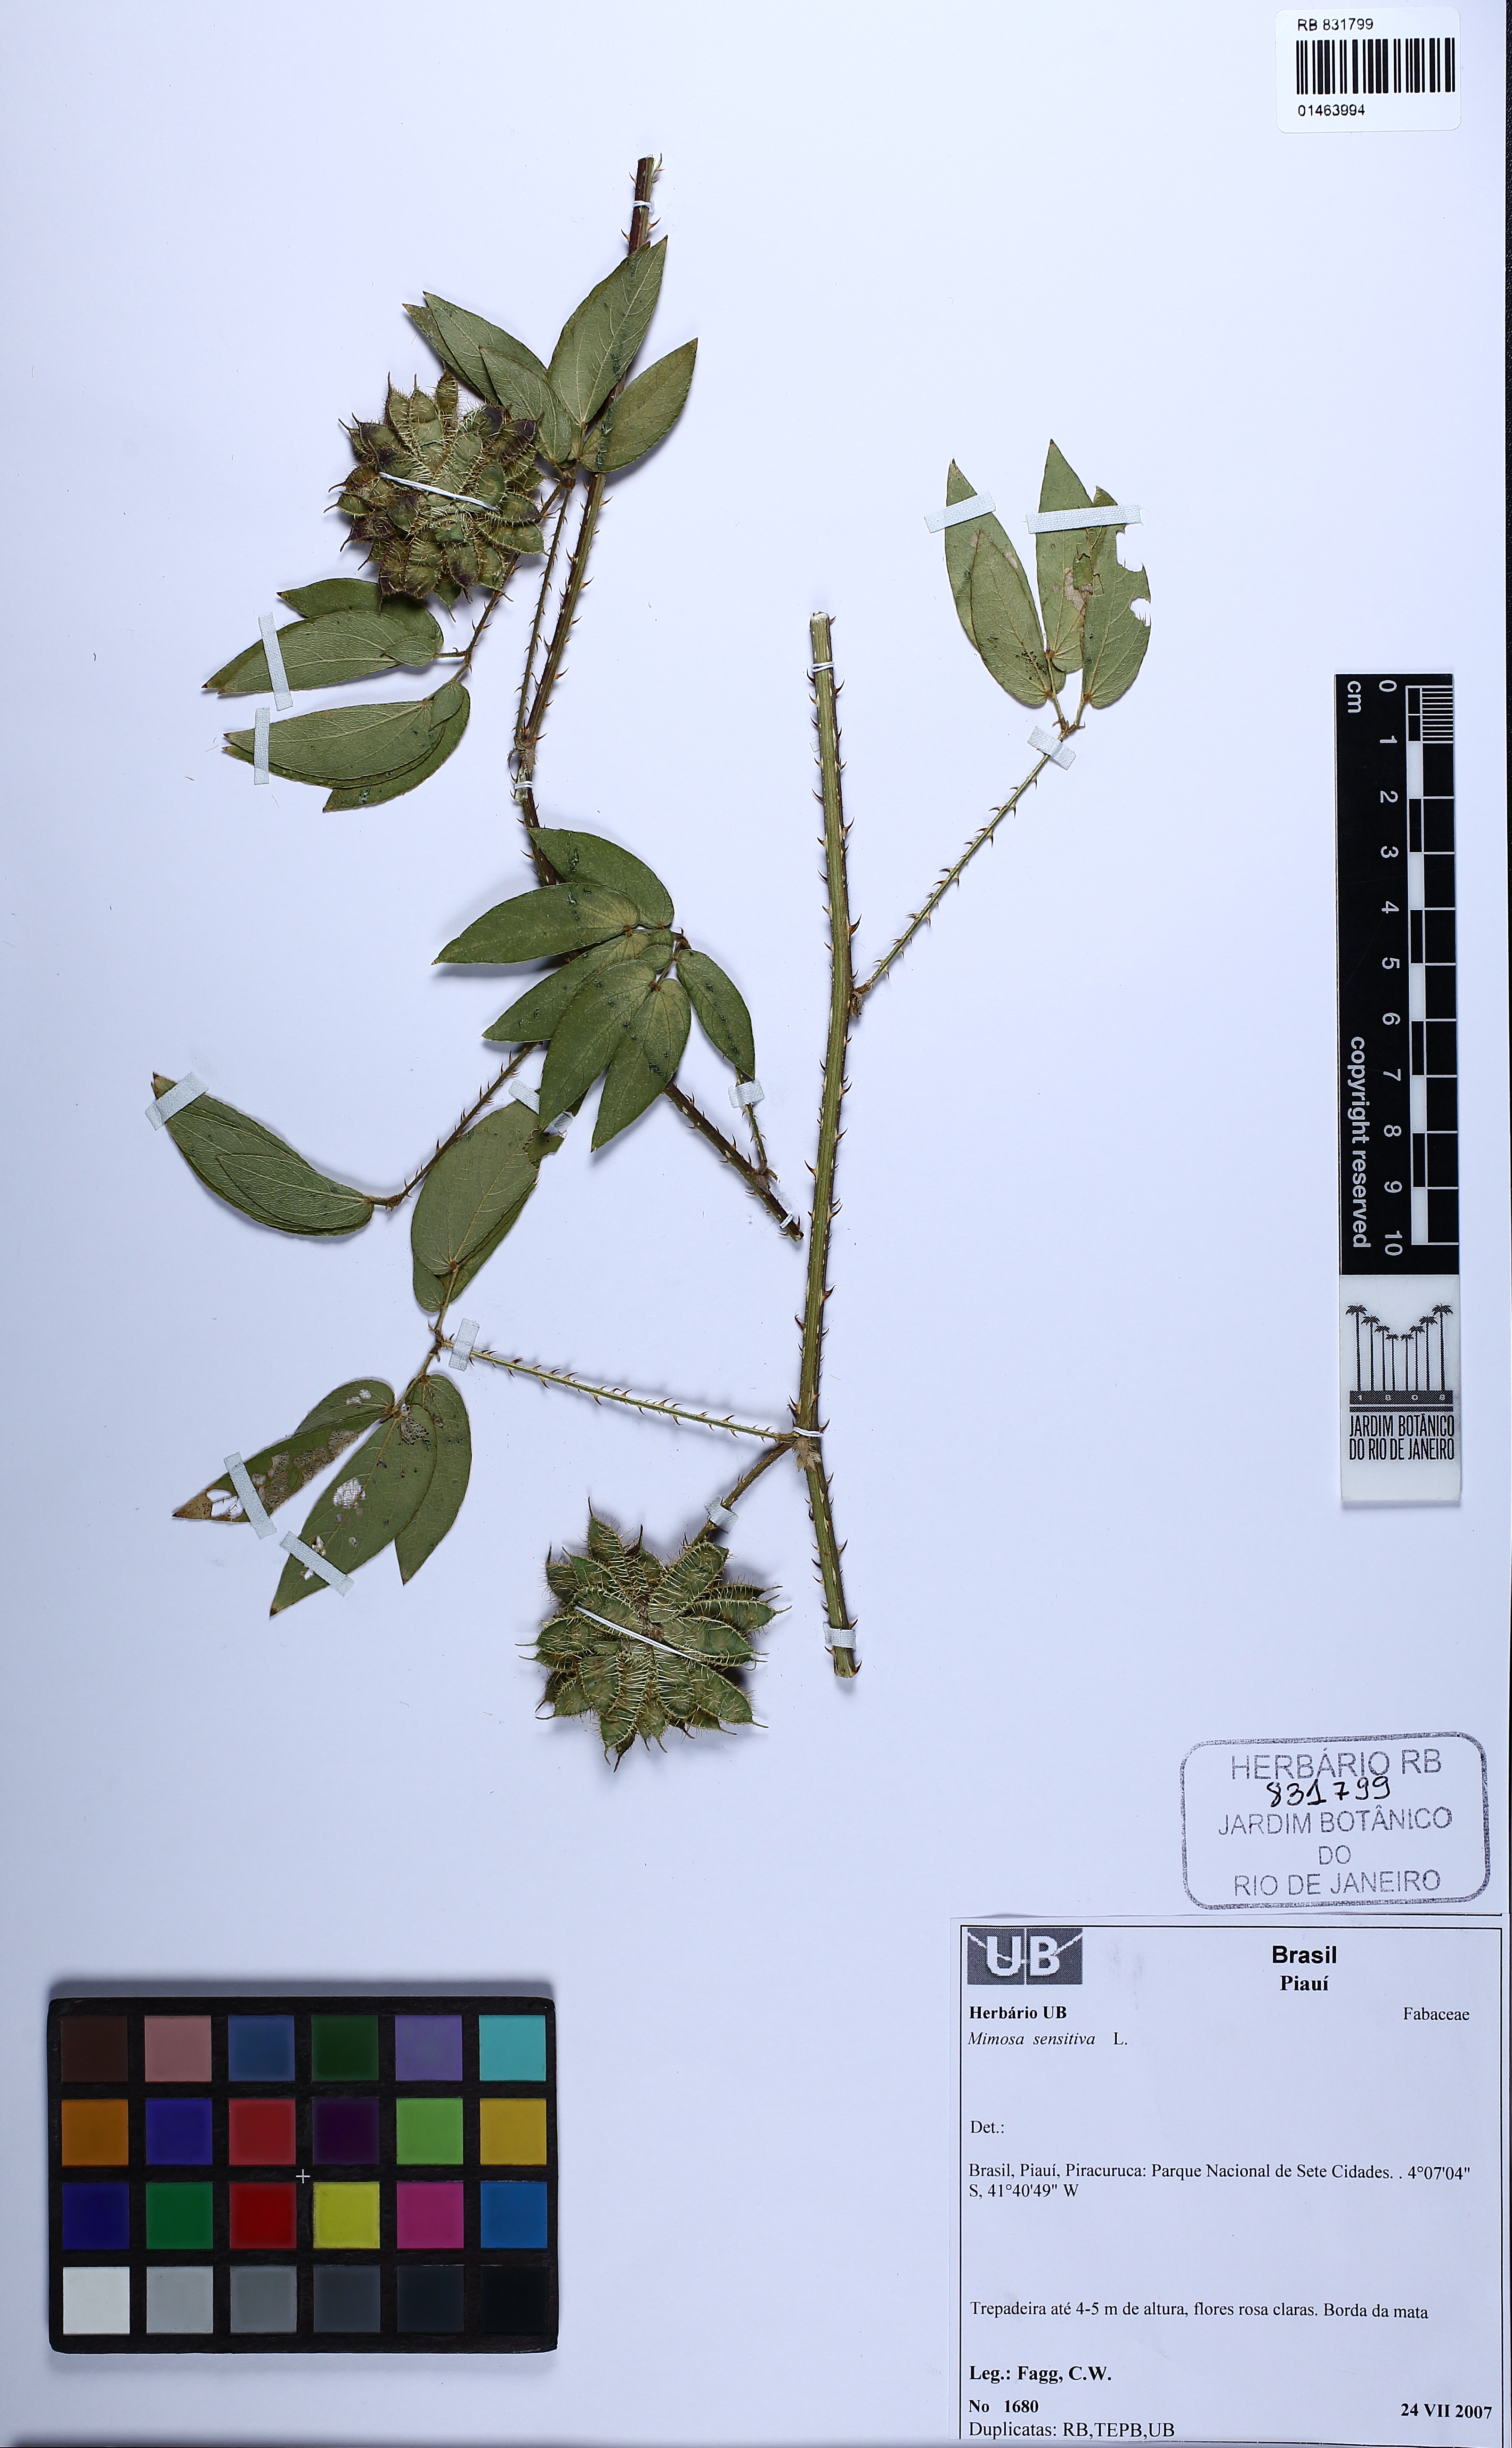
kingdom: Plantae
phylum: Tracheophyta
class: Magnoliopsida
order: Fabales
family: Fabaceae
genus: Mimosa
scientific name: Mimosa sensitiva
